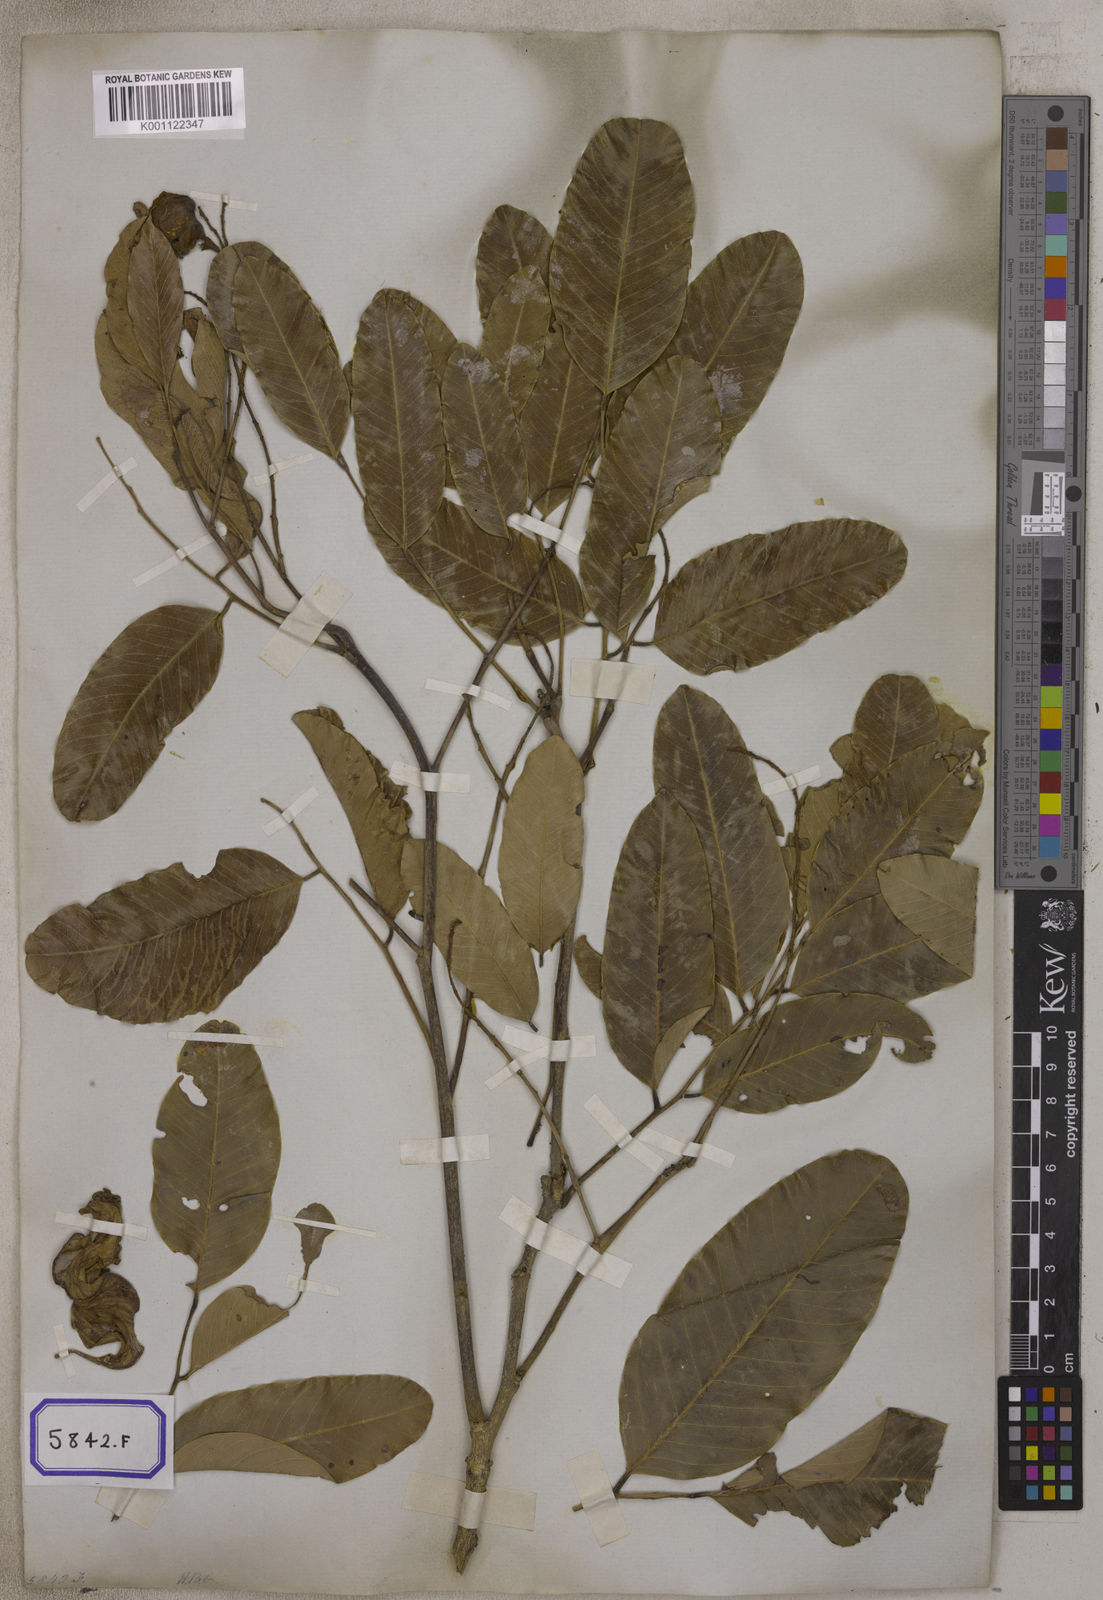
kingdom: Plantae
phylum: Tracheophyta
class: Magnoliopsida
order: Fabales
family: Fabaceae
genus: Pterocarpus
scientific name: Pterocarpus marsupium
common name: East indian/malabar kino
